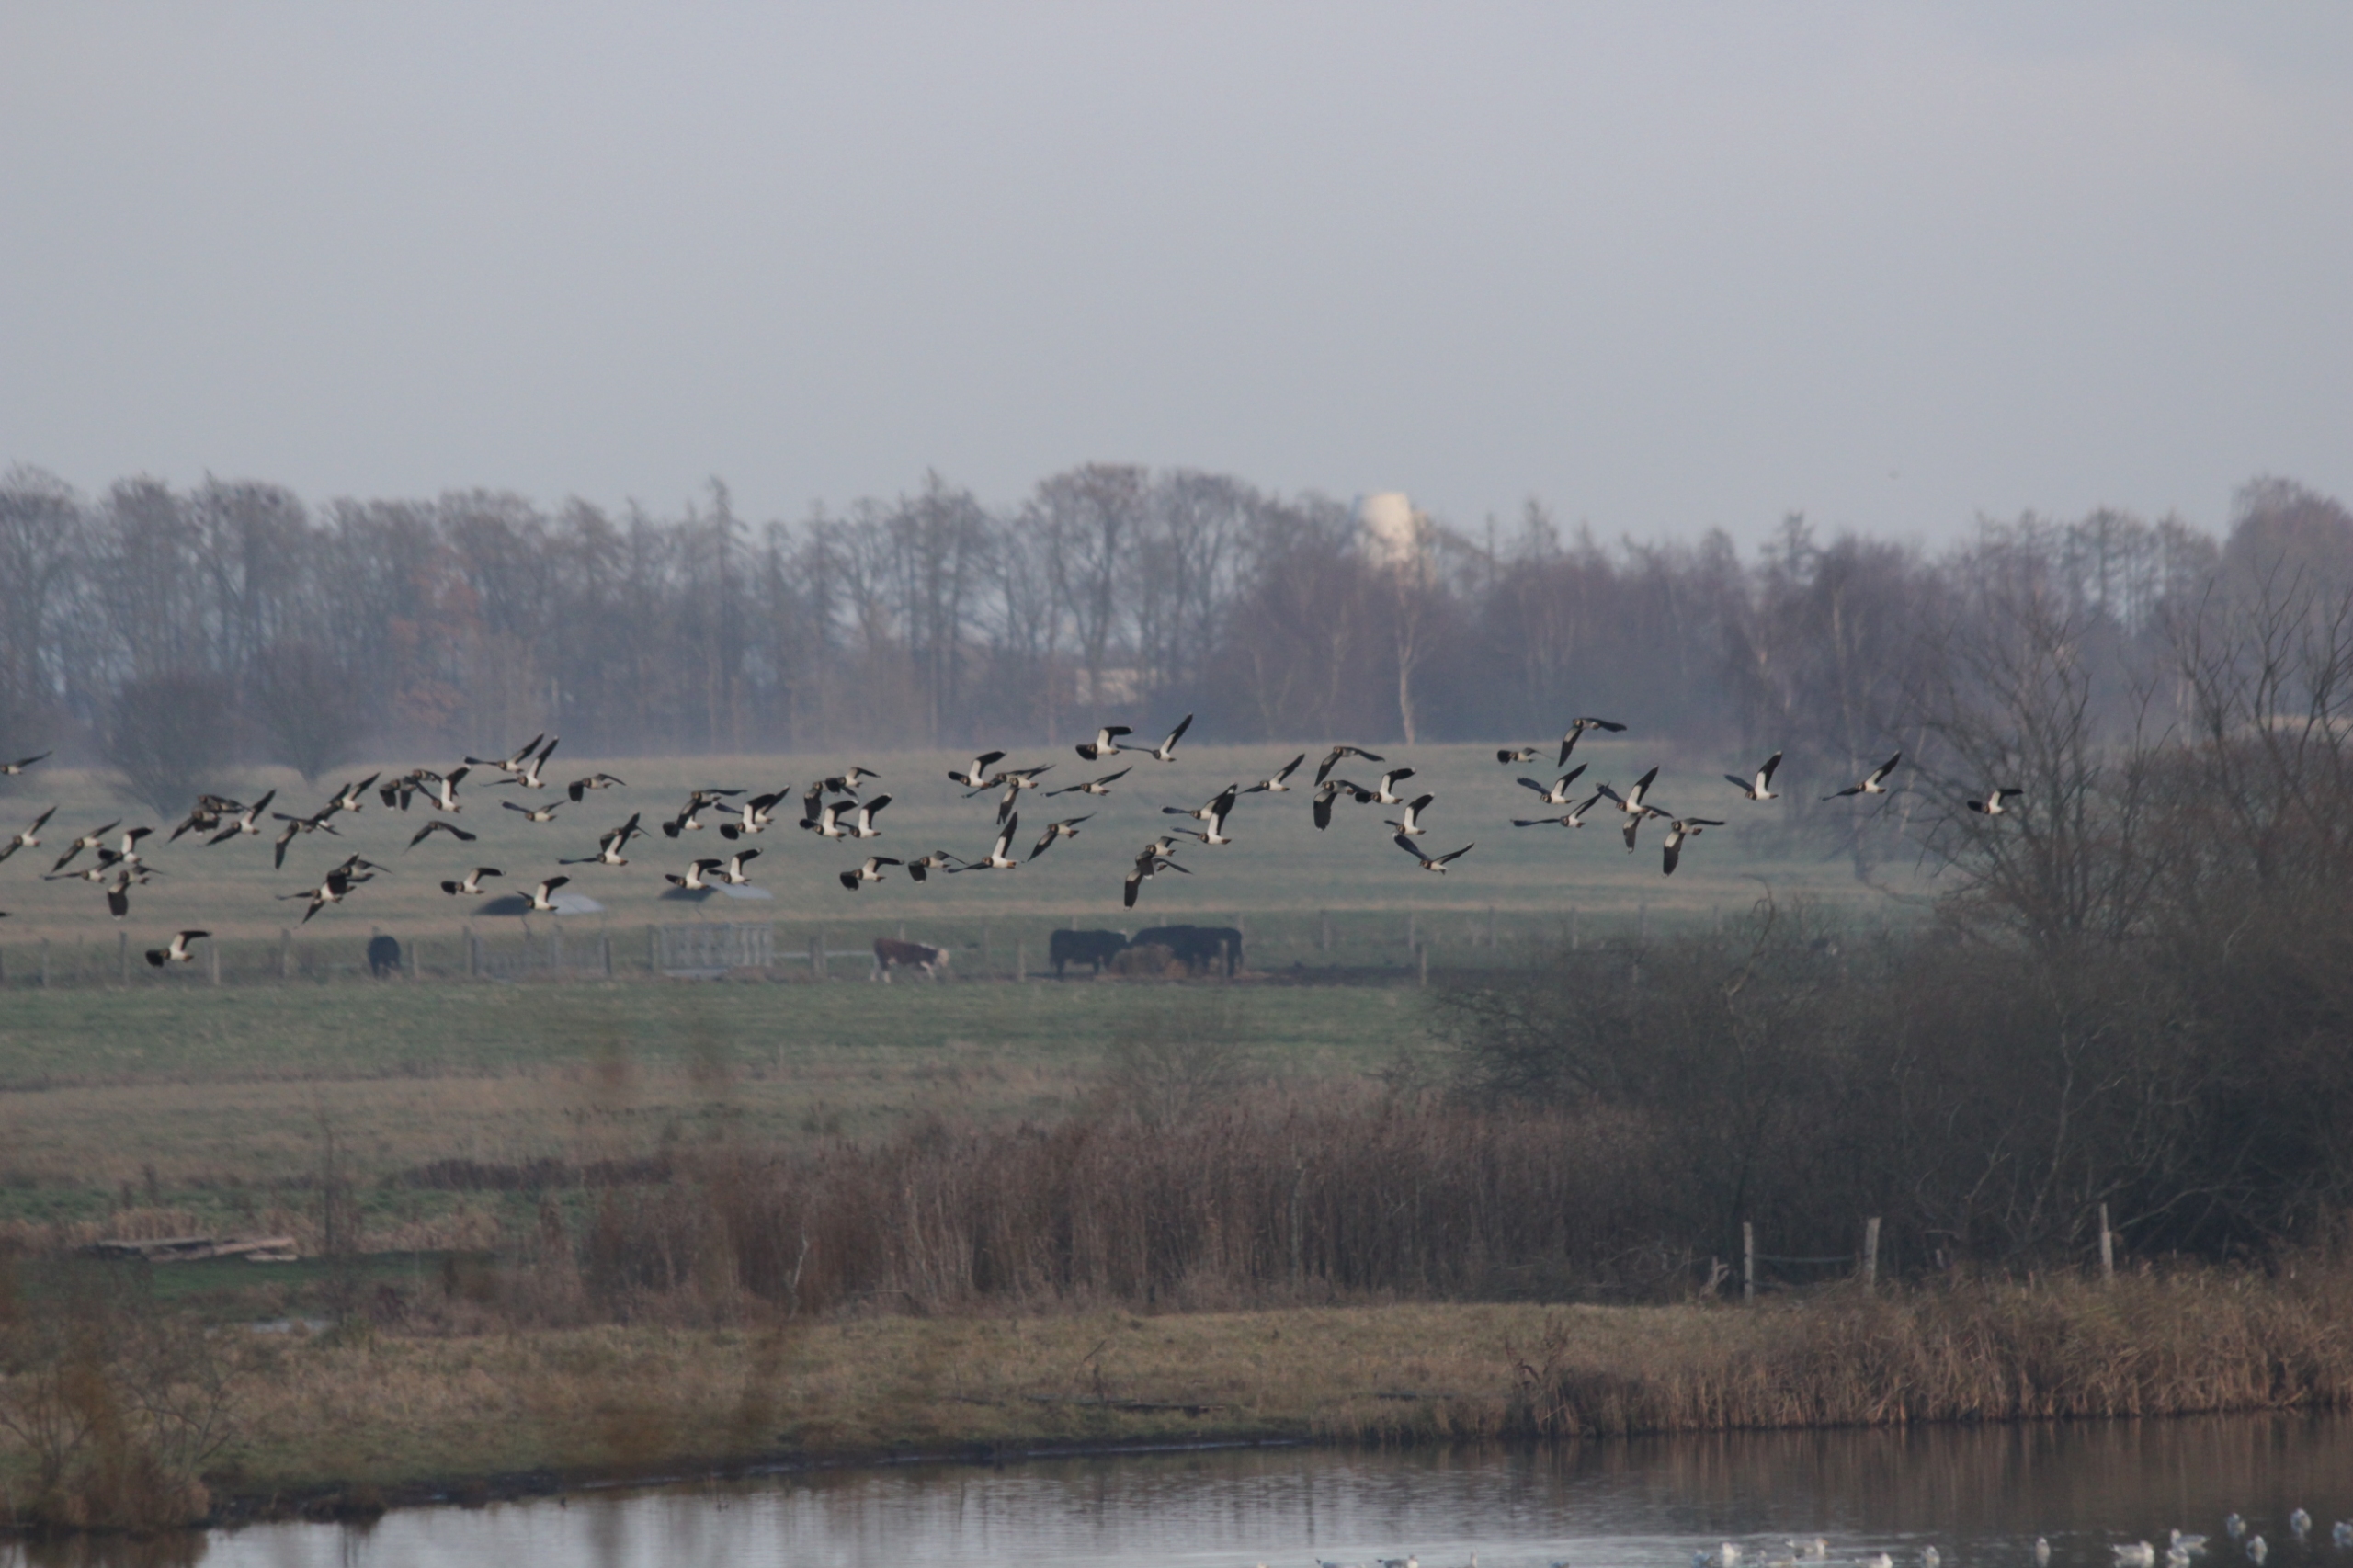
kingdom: Animalia
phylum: Chordata
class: Aves
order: Charadriiformes
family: Charadriidae
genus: Vanellus
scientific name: Vanellus vanellus
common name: Vibe
